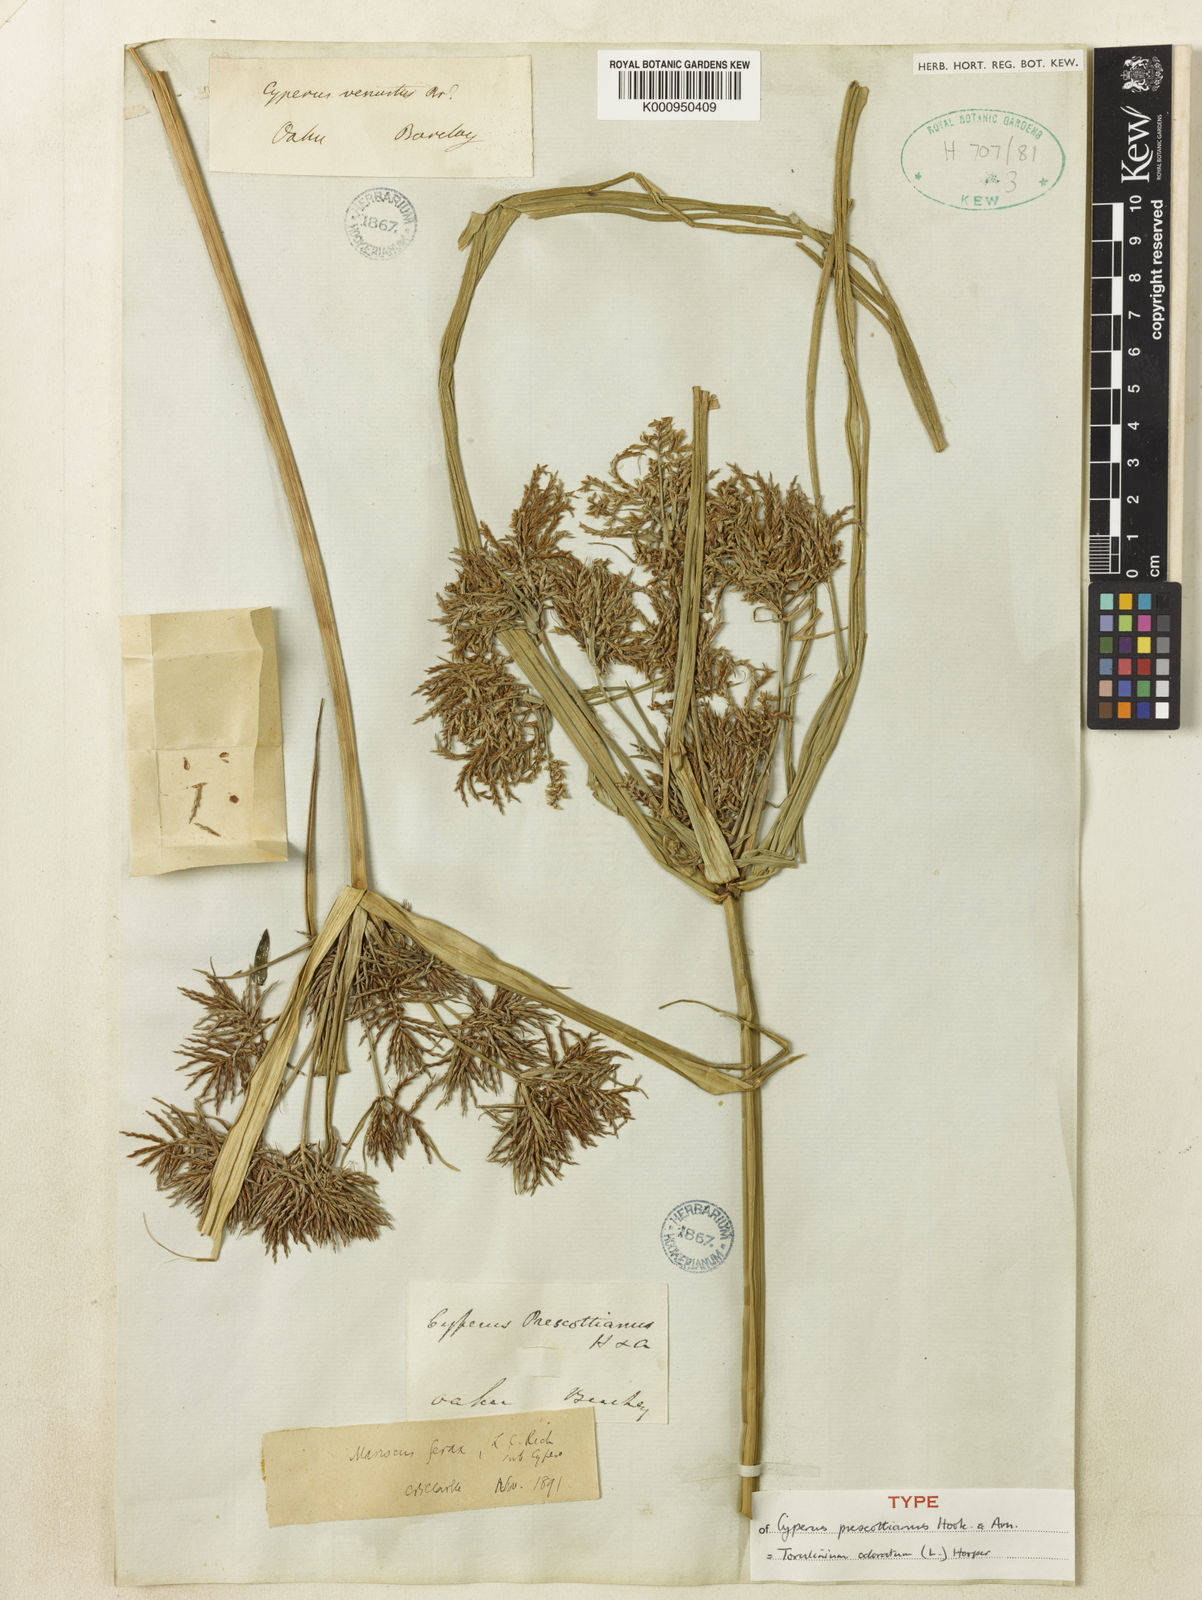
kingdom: Plantae
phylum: Tracheophyta
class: Liliopsida
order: Poales
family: Cyperaceae
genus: Cyperus
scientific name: Cyperus odoratus
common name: Fragrant flatsedge
